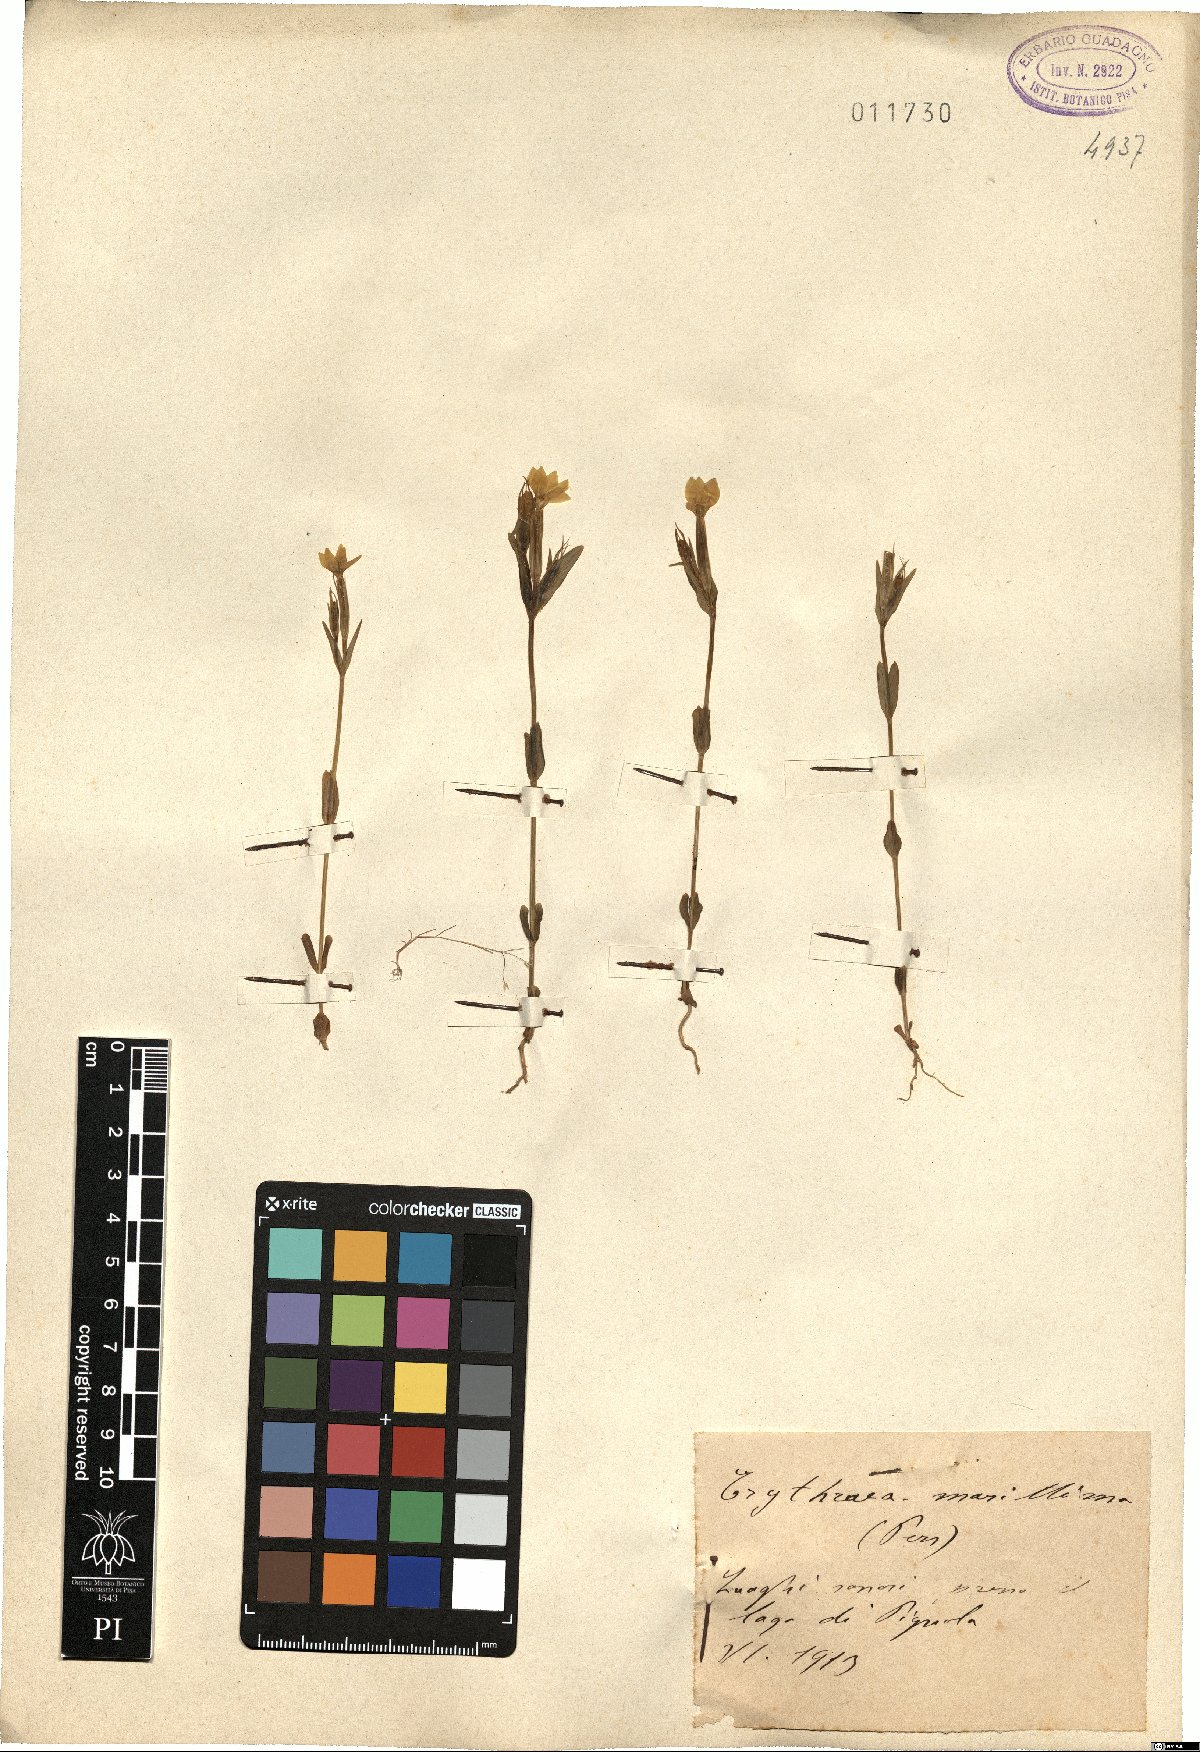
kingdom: Plantae
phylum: Tracheophyta
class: Magnoliopsida
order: Gentianales
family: Gentianaceae
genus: Centaurium
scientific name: Centaurium maritimum
